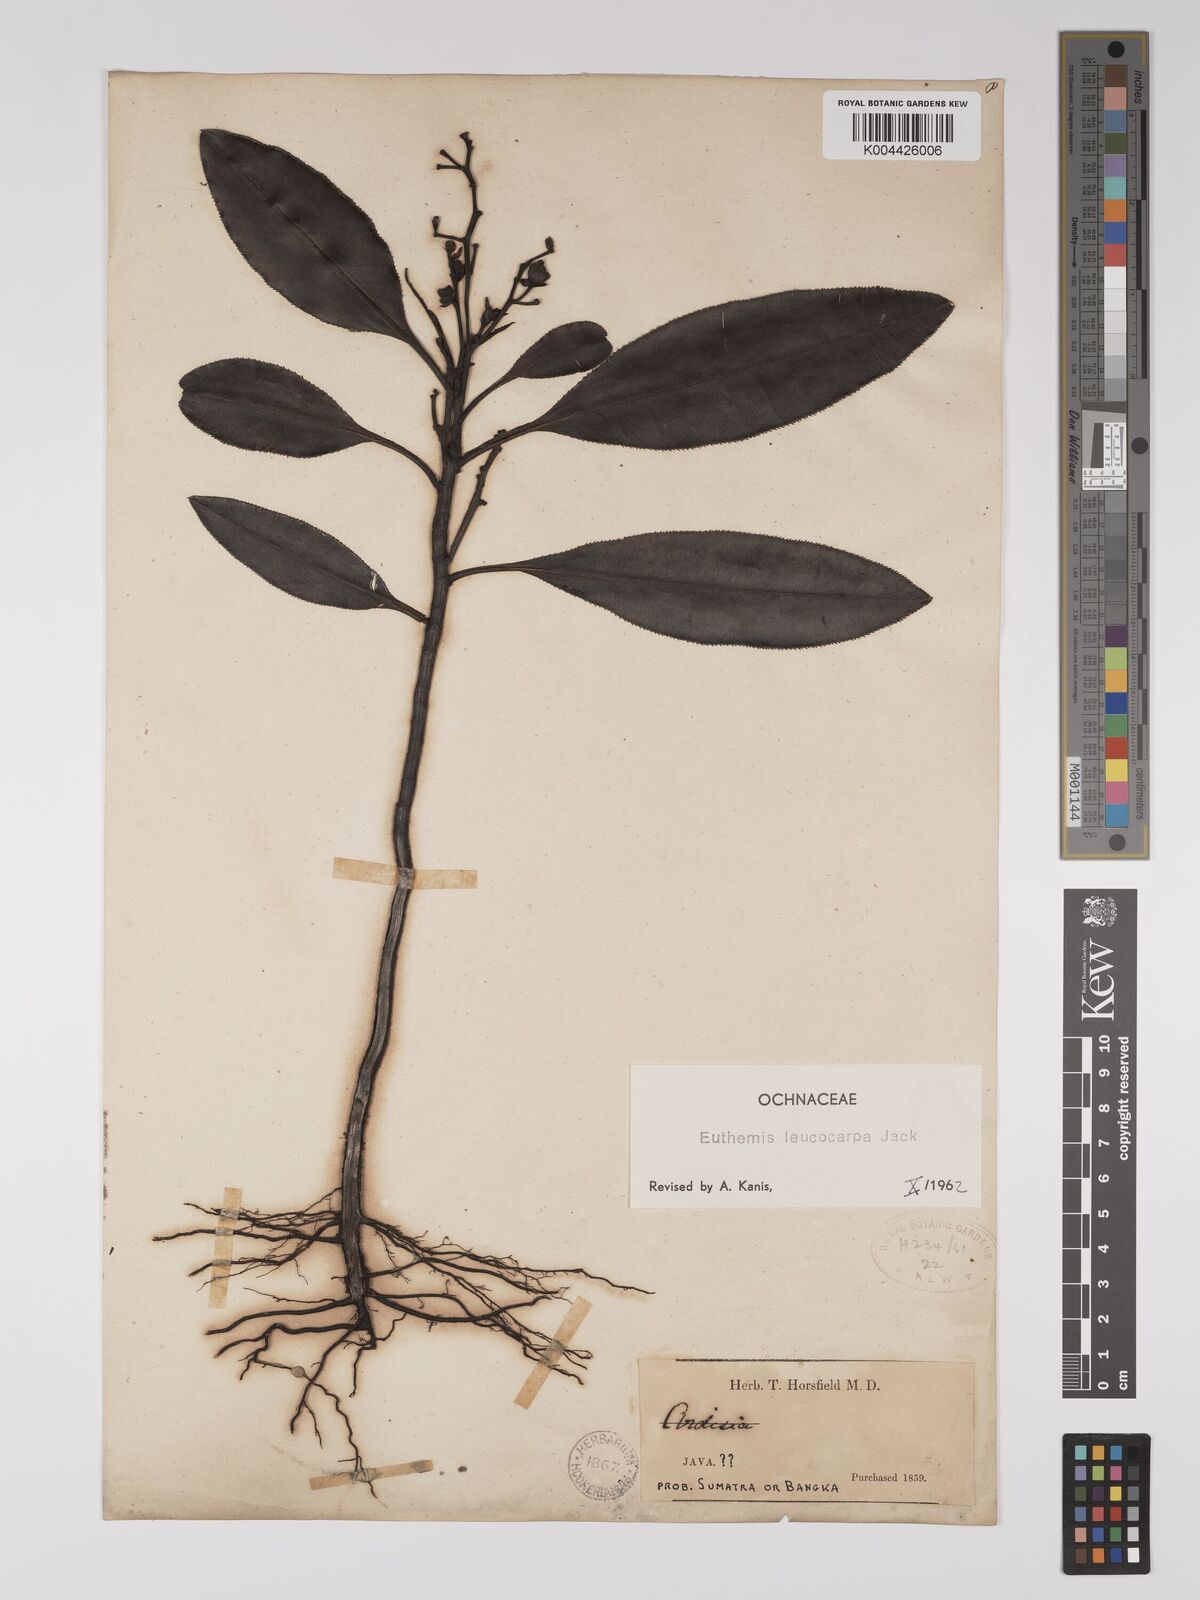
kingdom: Plantae
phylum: Tracheophyta
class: Magnoliopsida
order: Malpighiales
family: Ochnaceae
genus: Euthemis
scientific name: Euthemis leucocarpa
